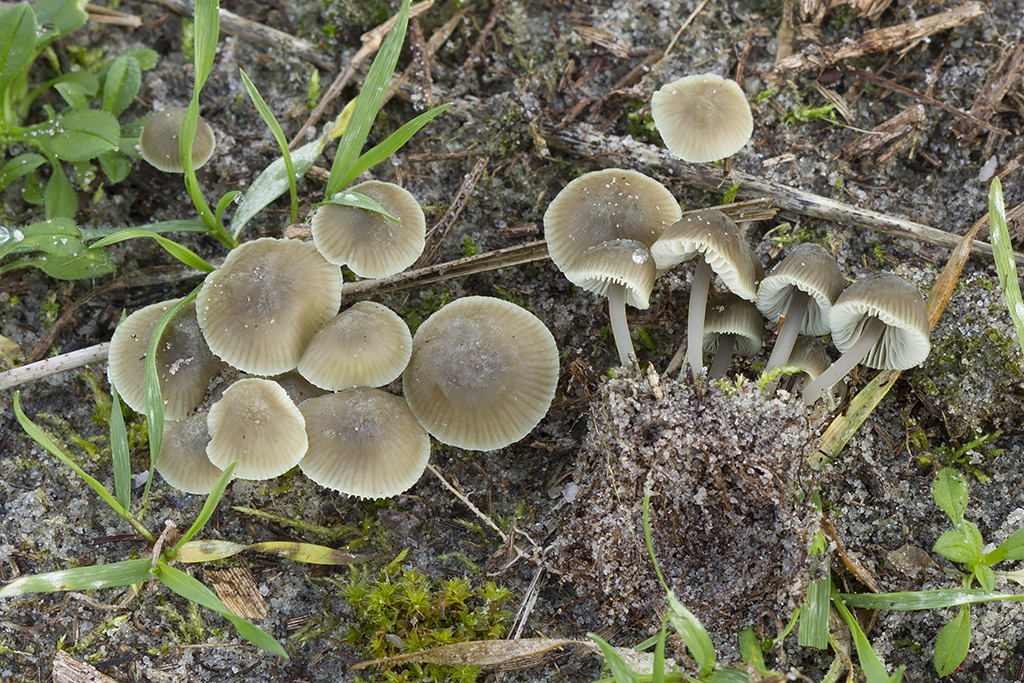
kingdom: Fungi
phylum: Basidiomycota
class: Agaricomycetes
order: Agaricales
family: Mycenaceae
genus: Mycena
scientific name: Mycena chlorantha
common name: klit-huesvamp
